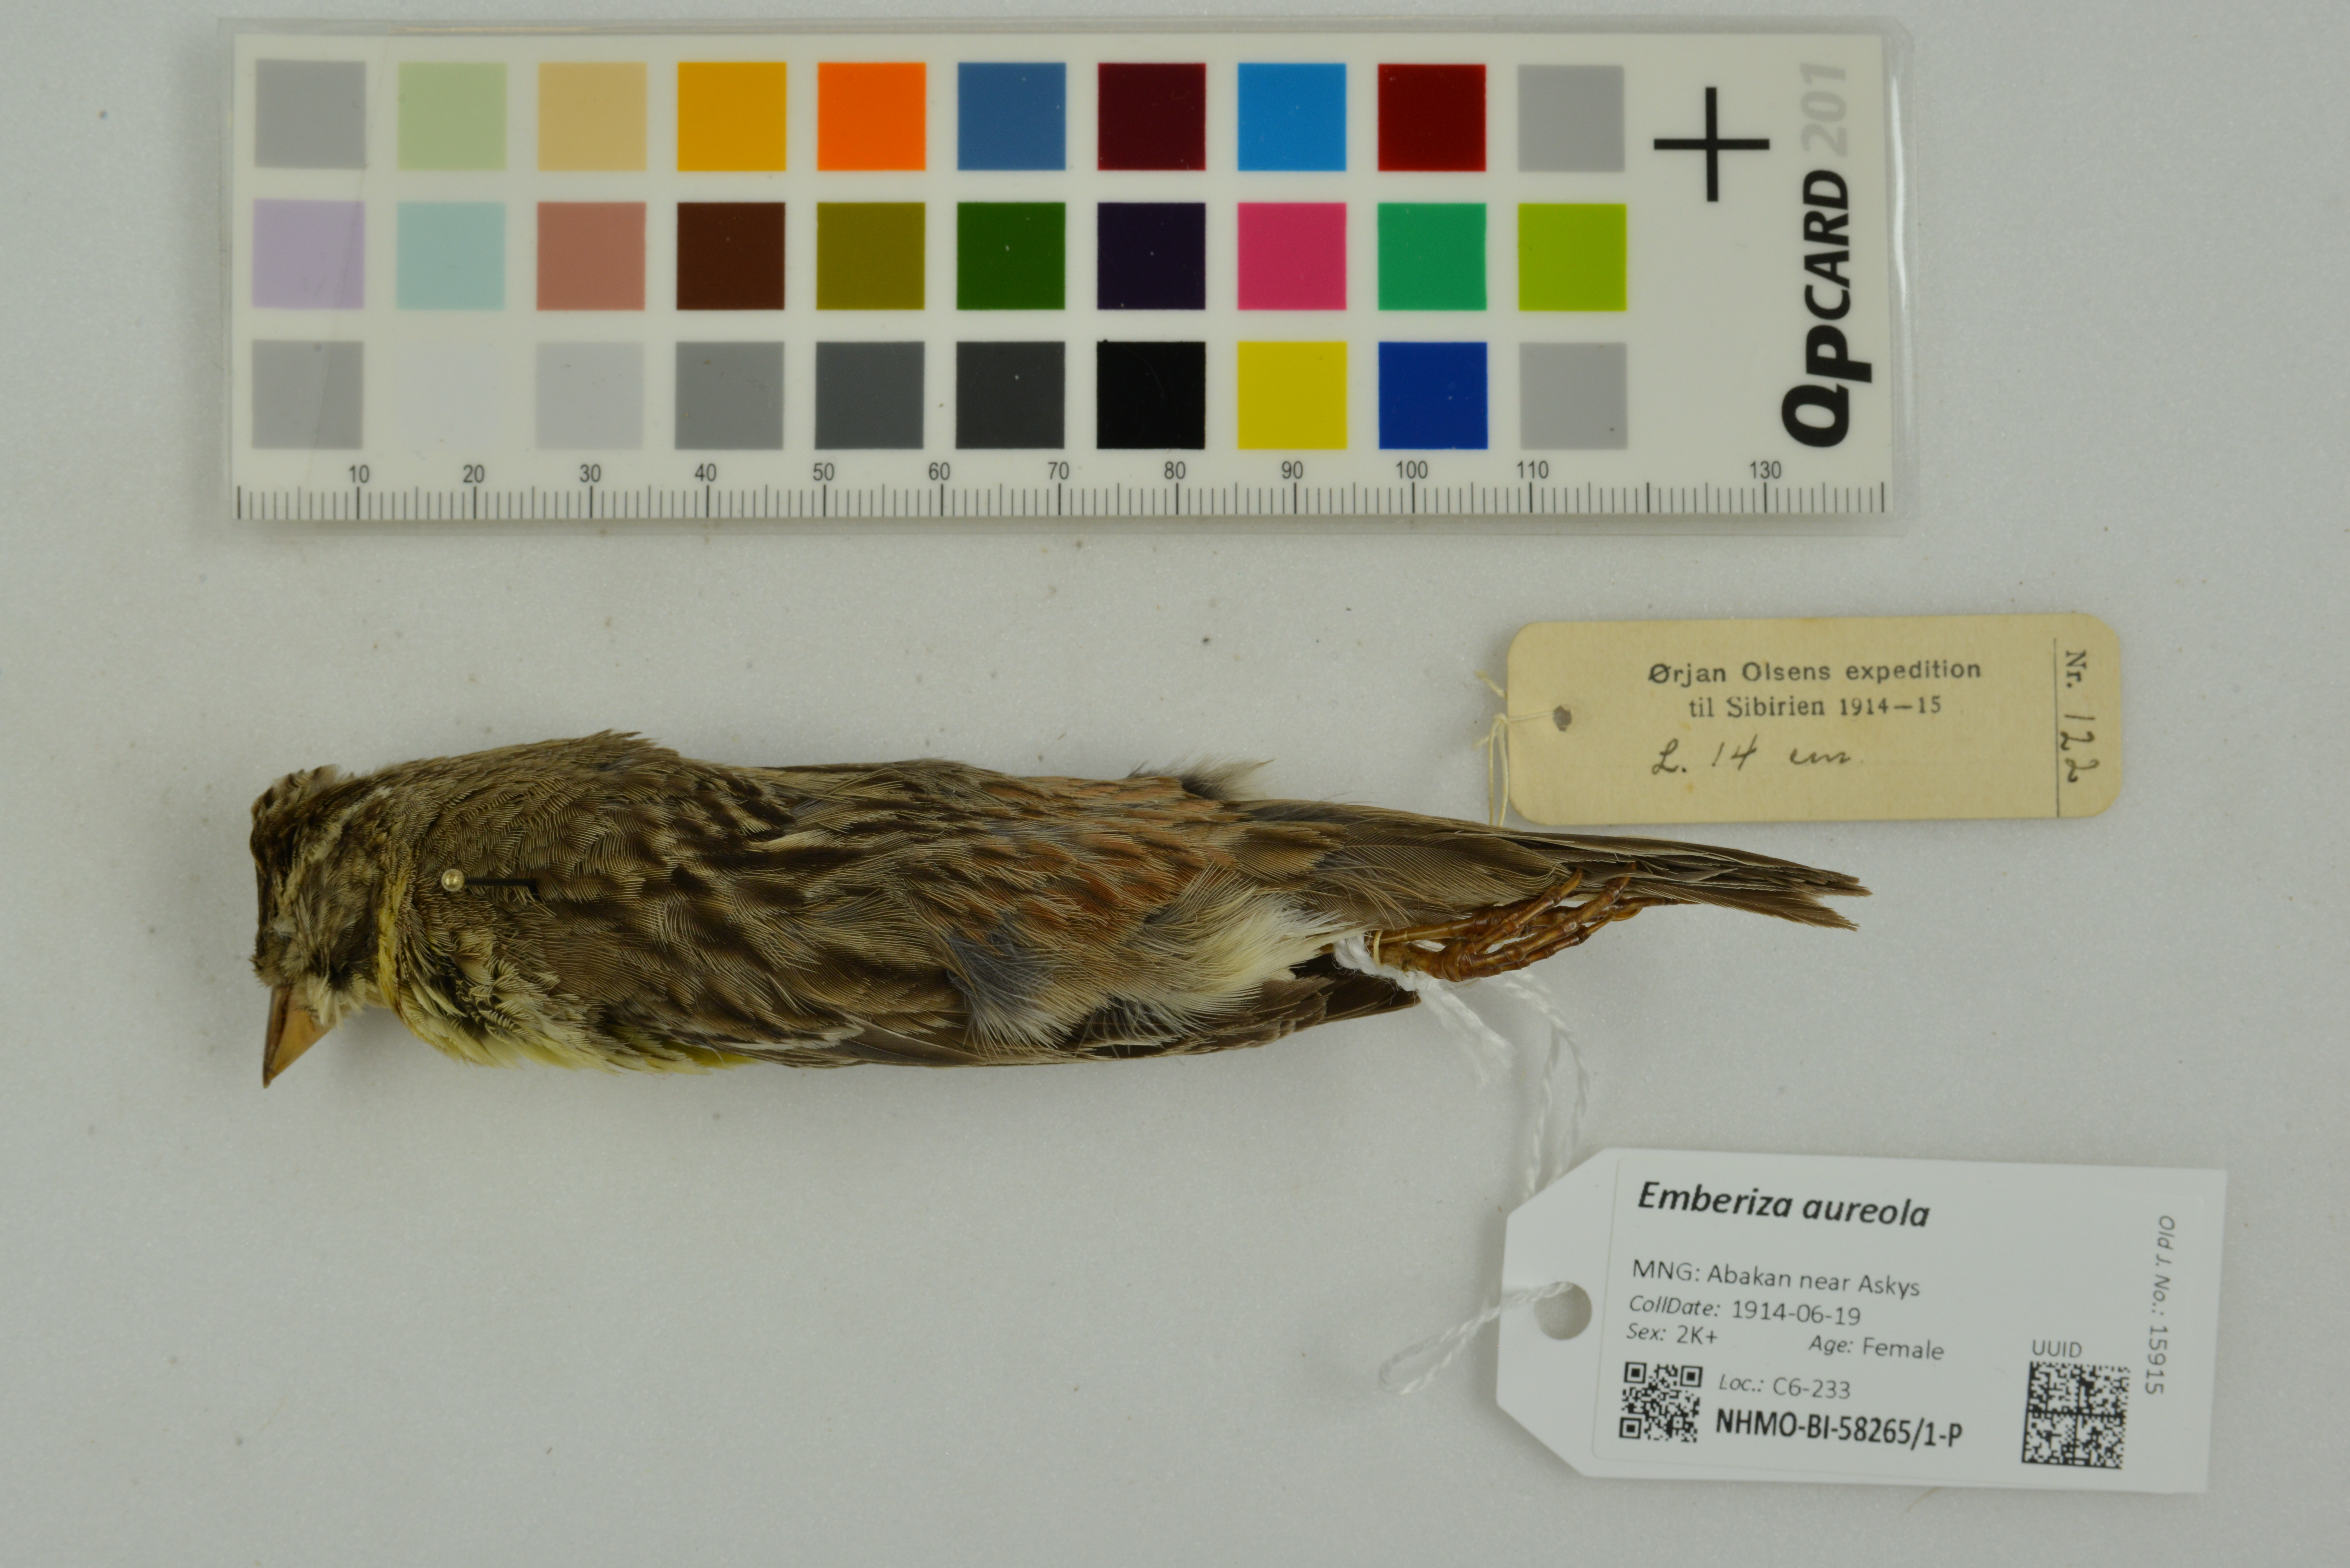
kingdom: Animalia
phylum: Chordata
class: Aves
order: Passeriformes
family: Emberizidae
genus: Emberiza
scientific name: Emberiza aureola
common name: Yellow-breasted bunting
